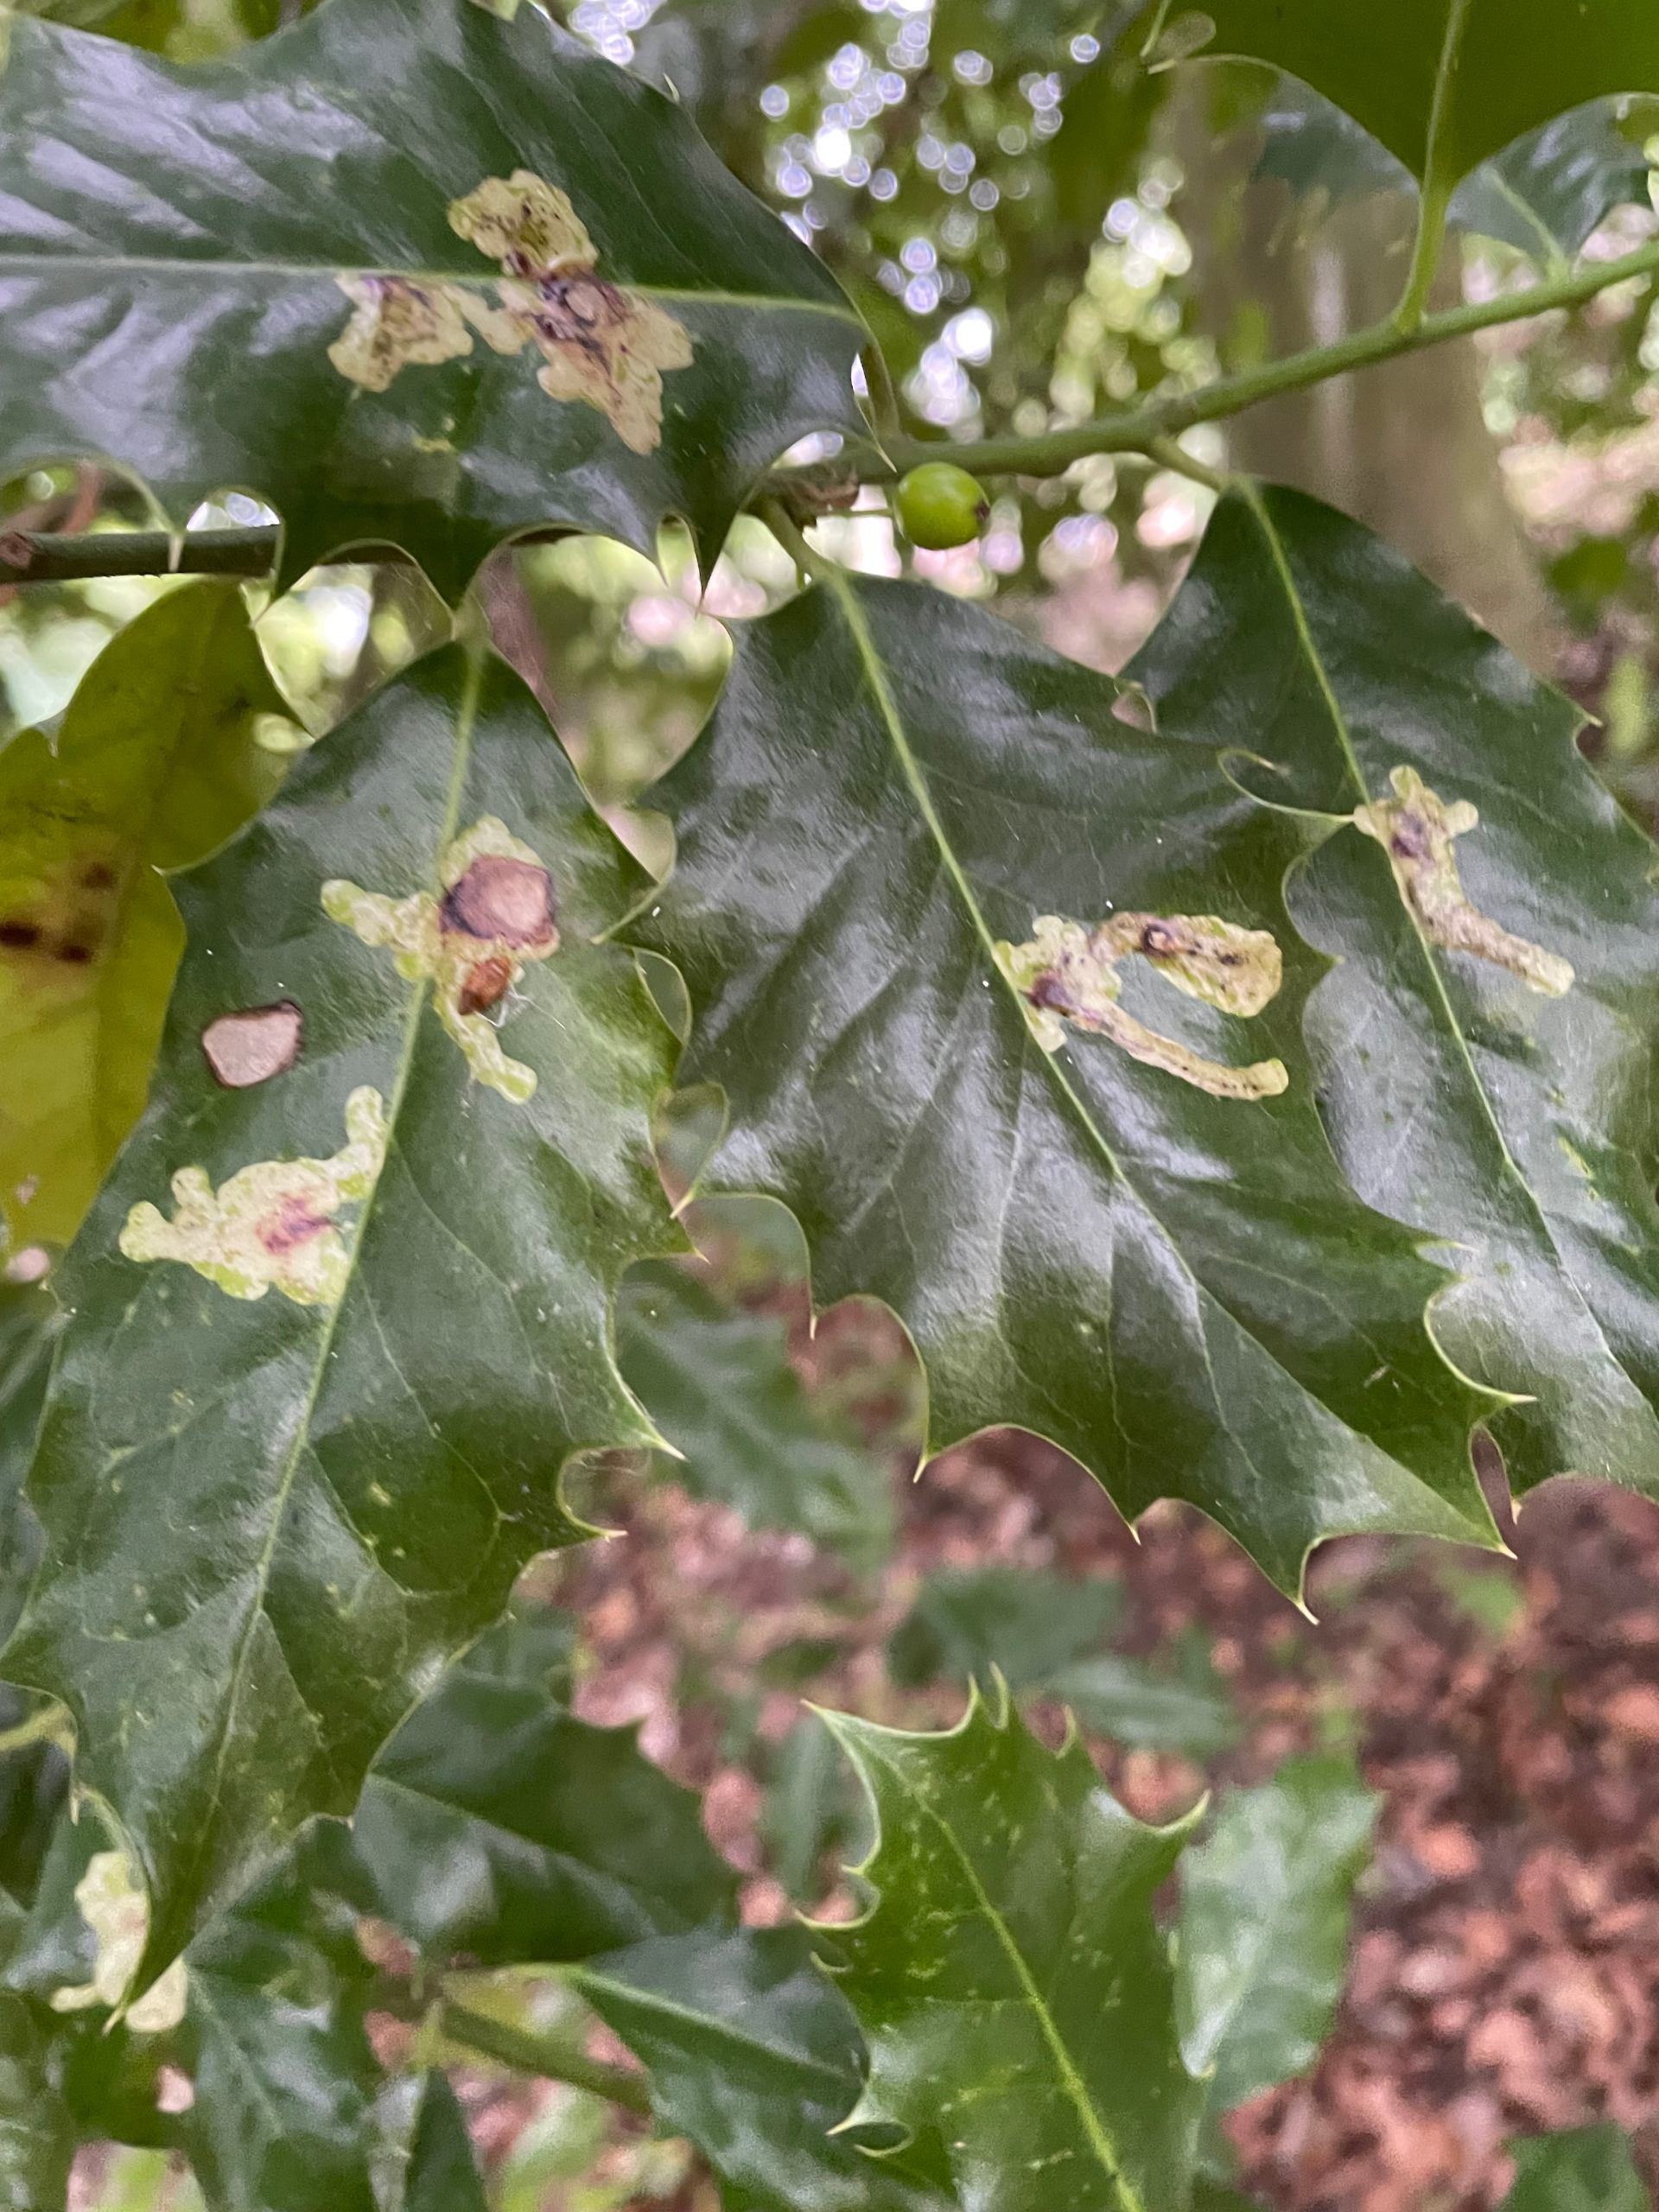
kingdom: Animalia
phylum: Arthropoda
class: Insecta
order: Diptera
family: Agromyzidae
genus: Phytomyza
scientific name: Phytomyza ilicis
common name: Kristtornminérflue
